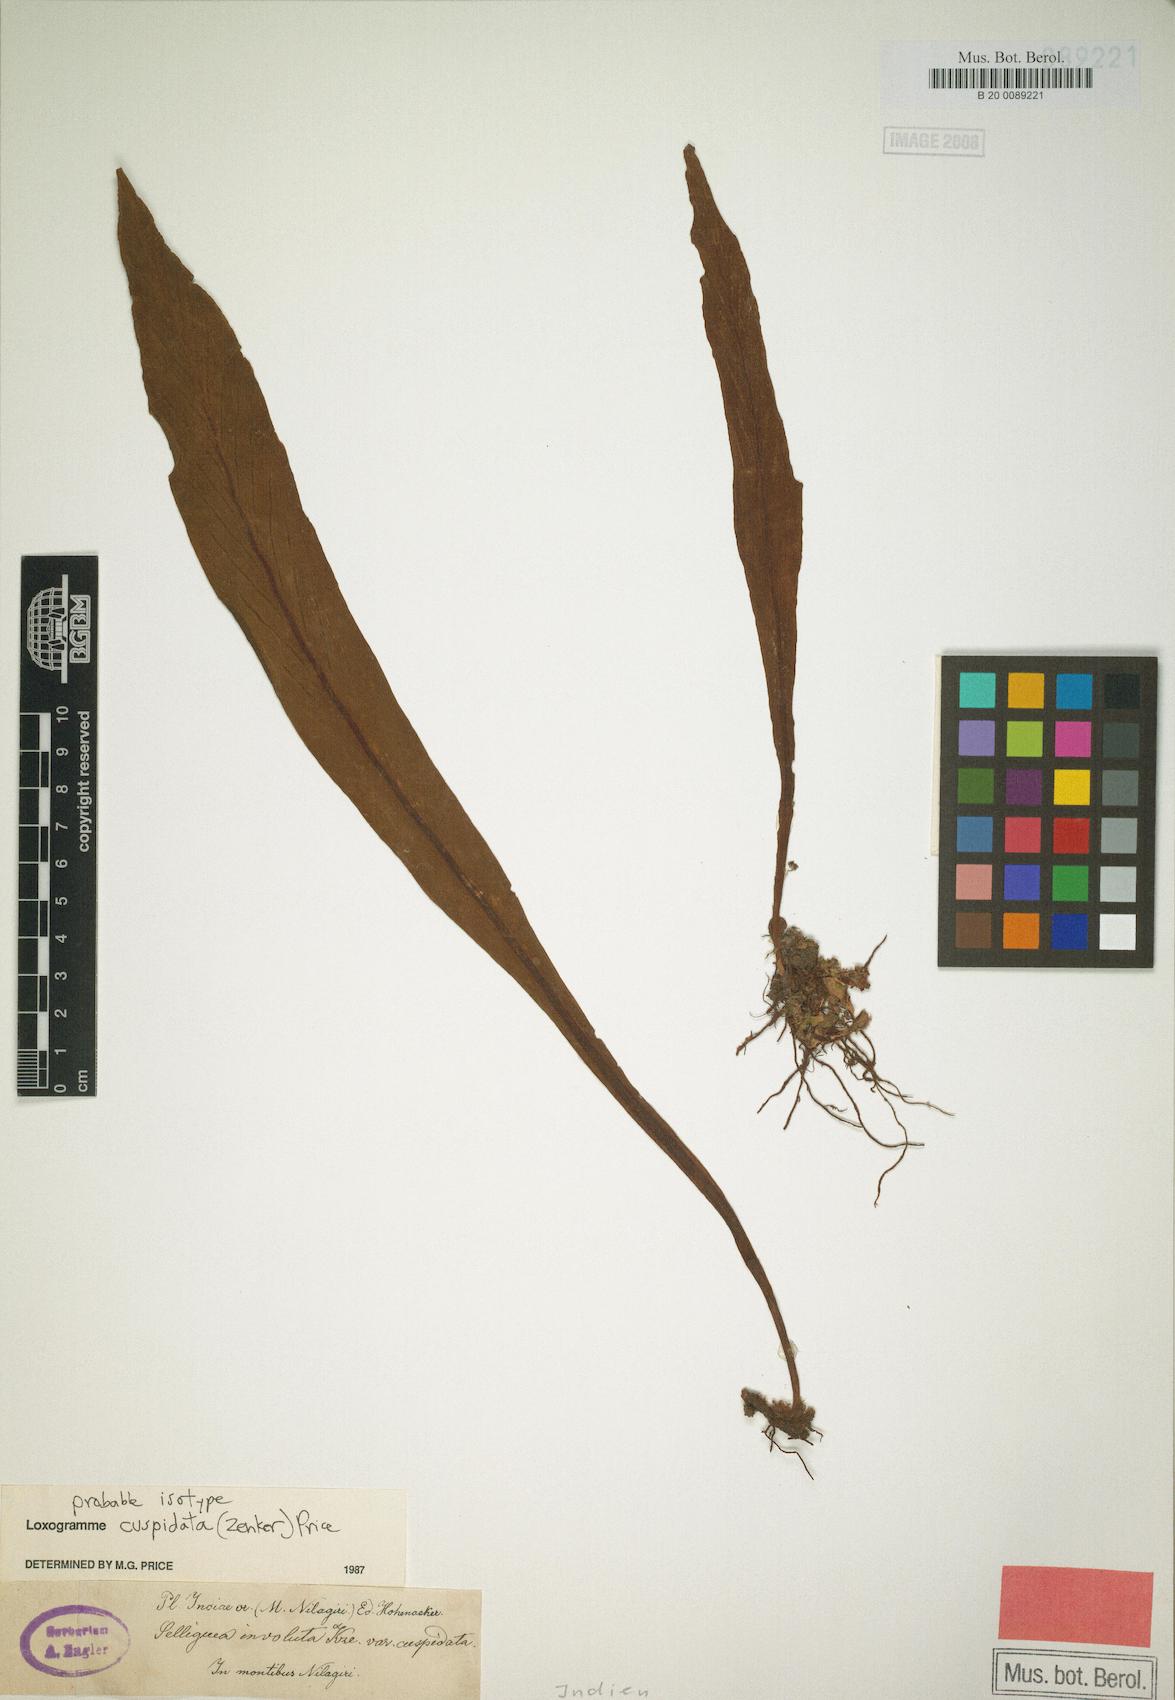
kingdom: Plantae
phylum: Tracheophyta
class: Polypodiopsida
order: Polypodiales
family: Polypodiaceae
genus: Loxogramme
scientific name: Loxogramme cuspidata
